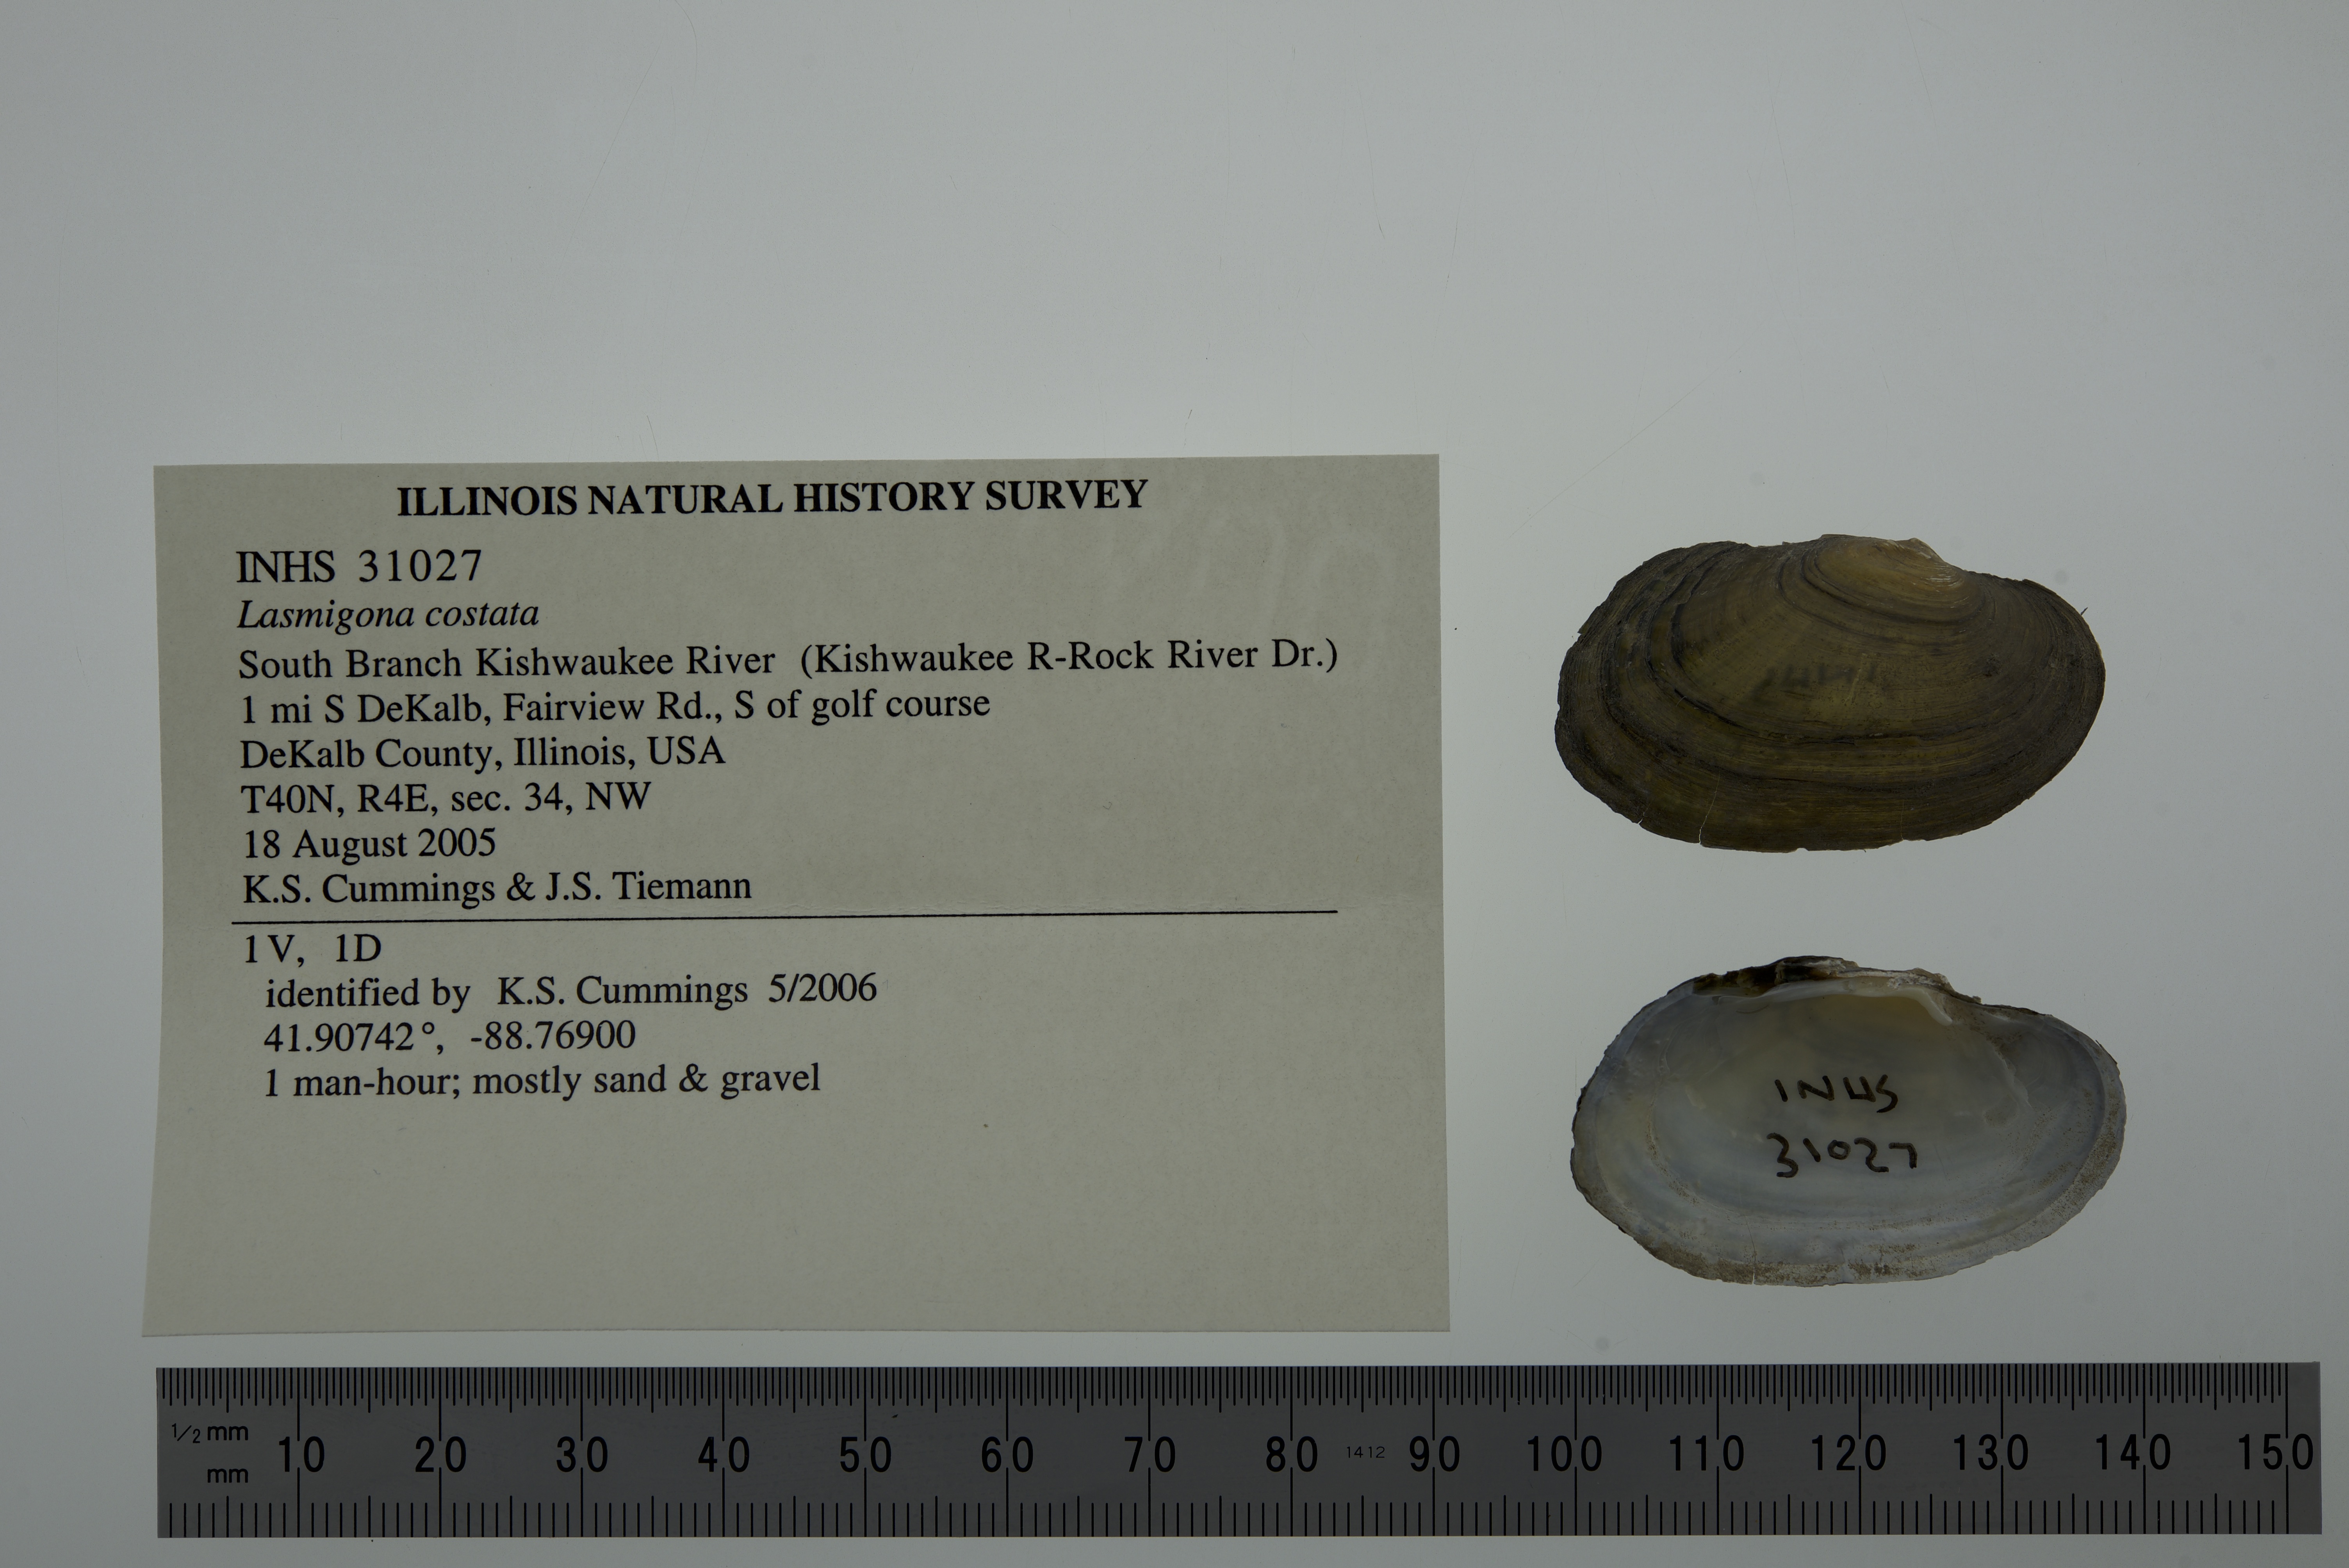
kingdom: Animalia
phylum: Mollusca
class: Bivalvia
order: Unionida
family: Unionidae
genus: Lasmigona
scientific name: Lasmigona costata
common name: Flutedshell
